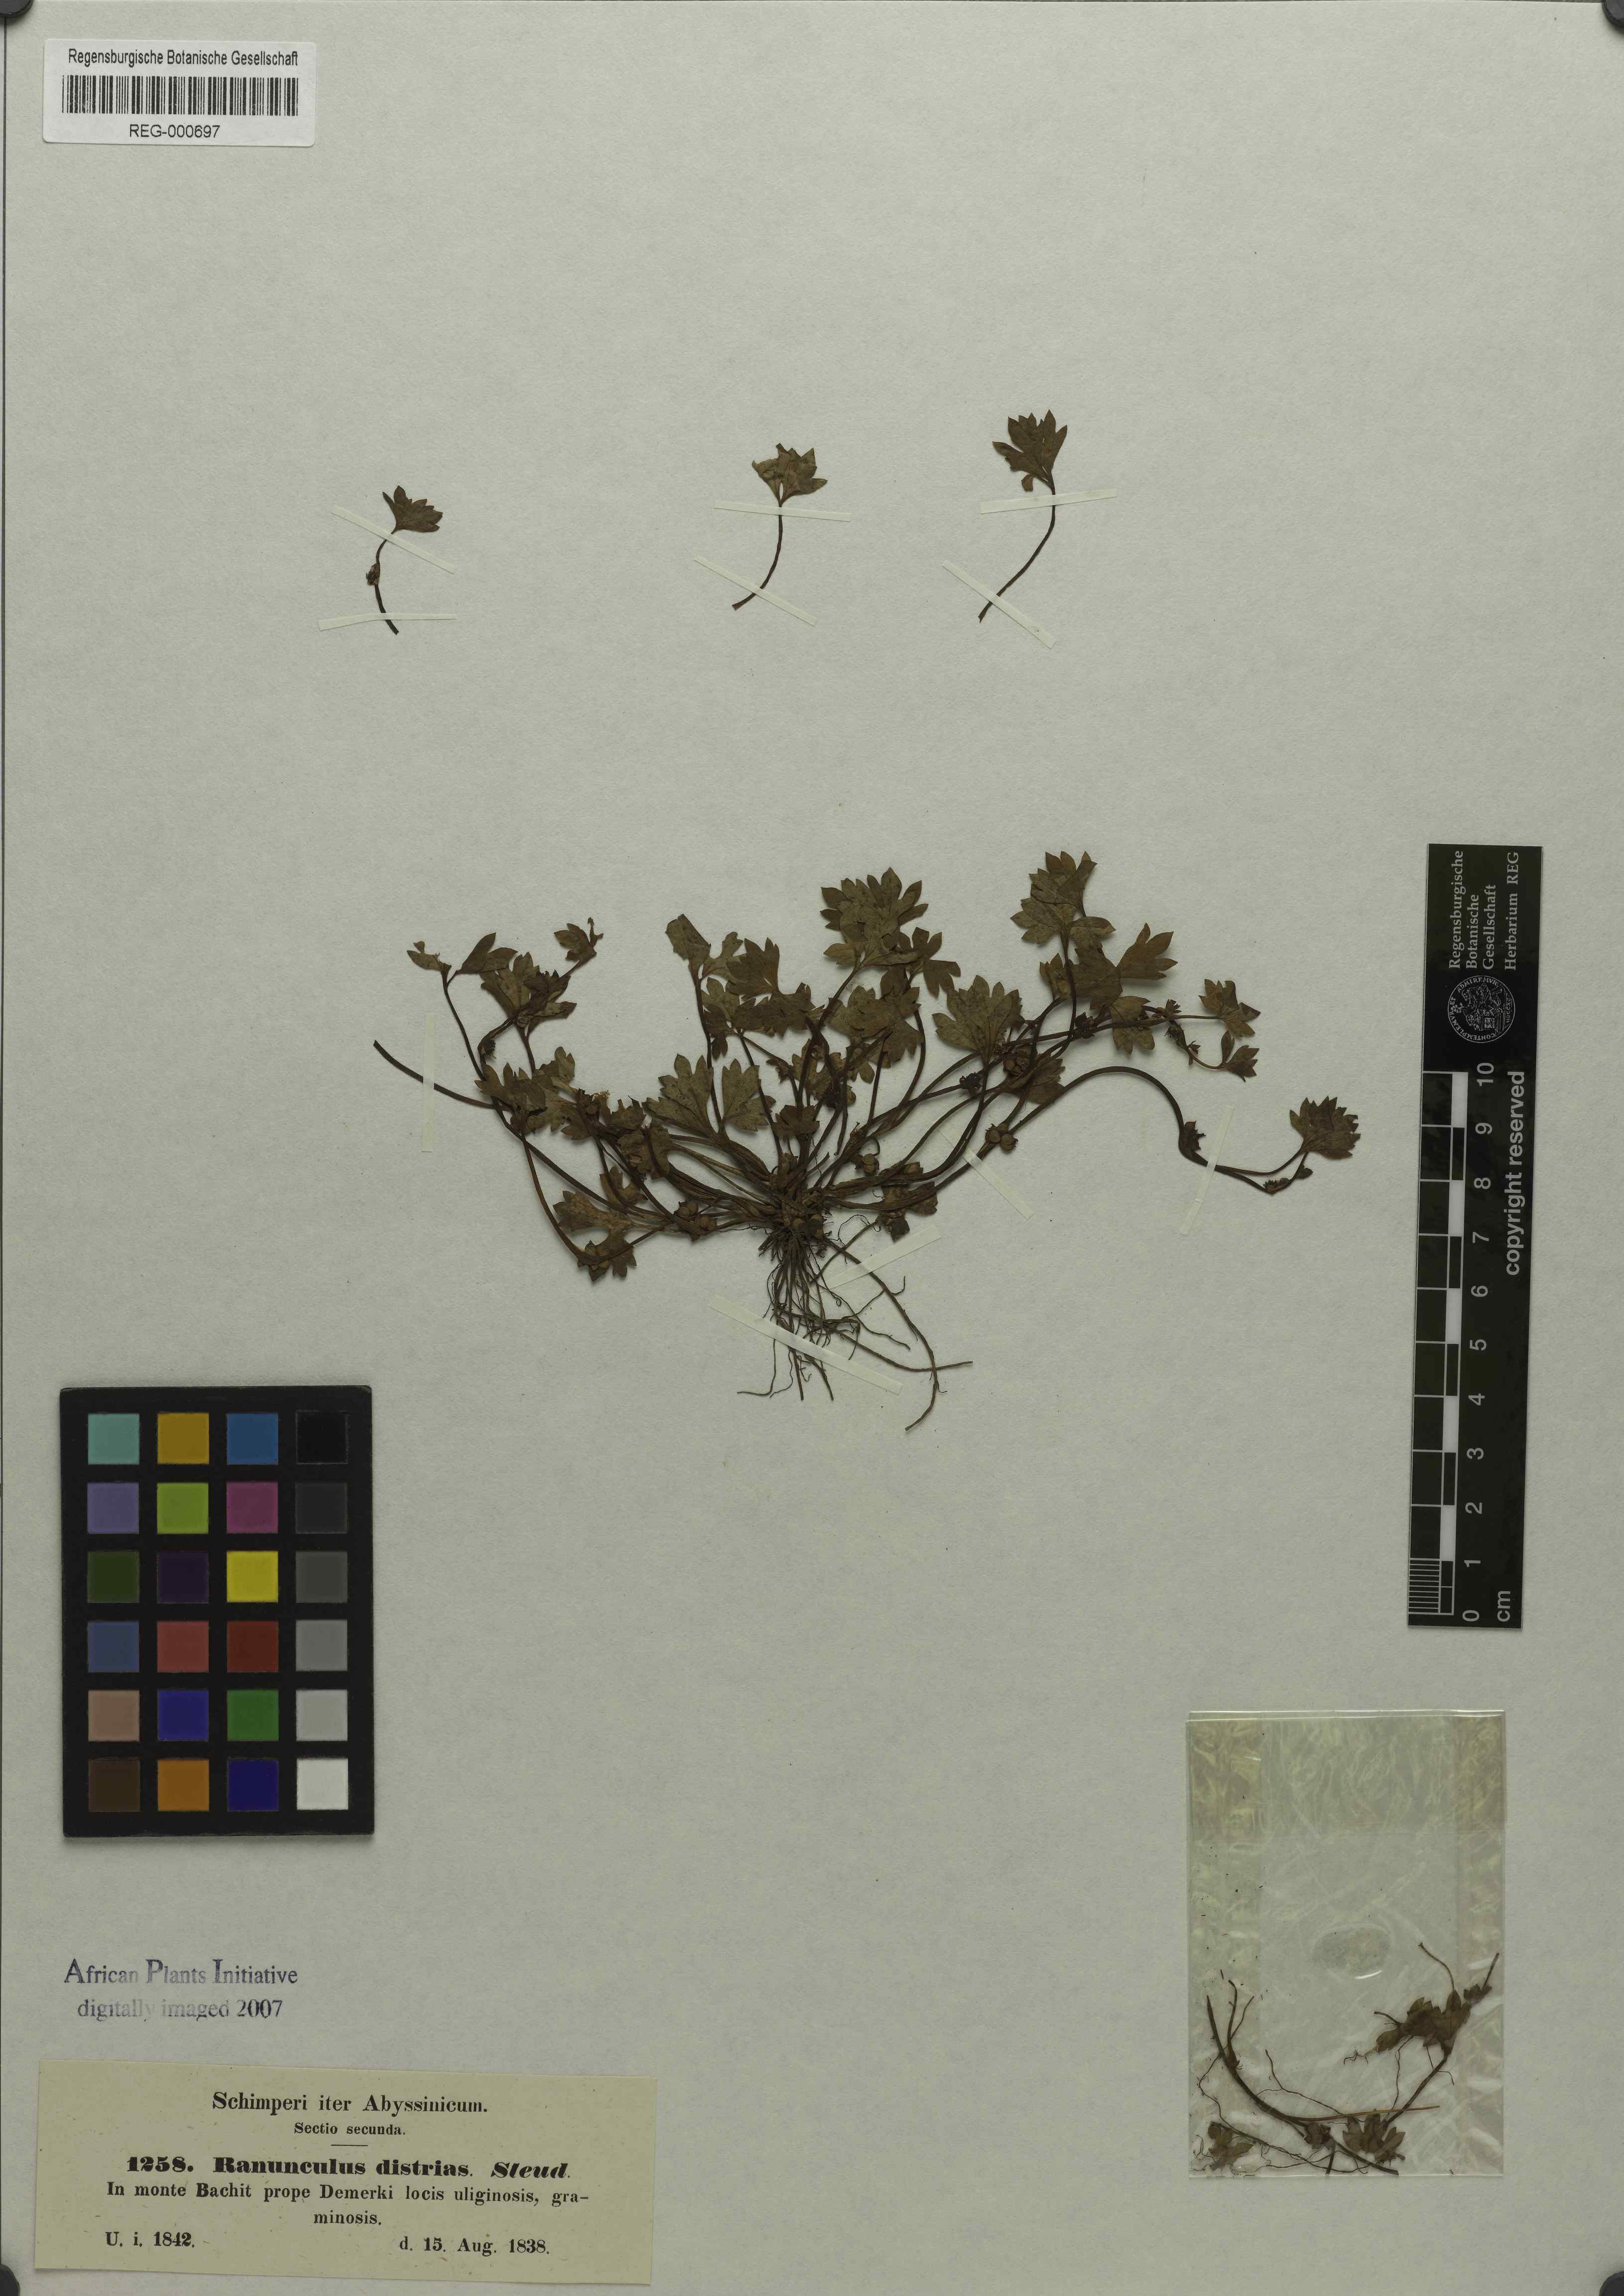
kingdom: Plantae
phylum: Tracheophyta
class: Magnoliopsida
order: Ranunculales
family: Ranunculaceae
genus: Ranunculus
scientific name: Ranunculus cuneilobus
